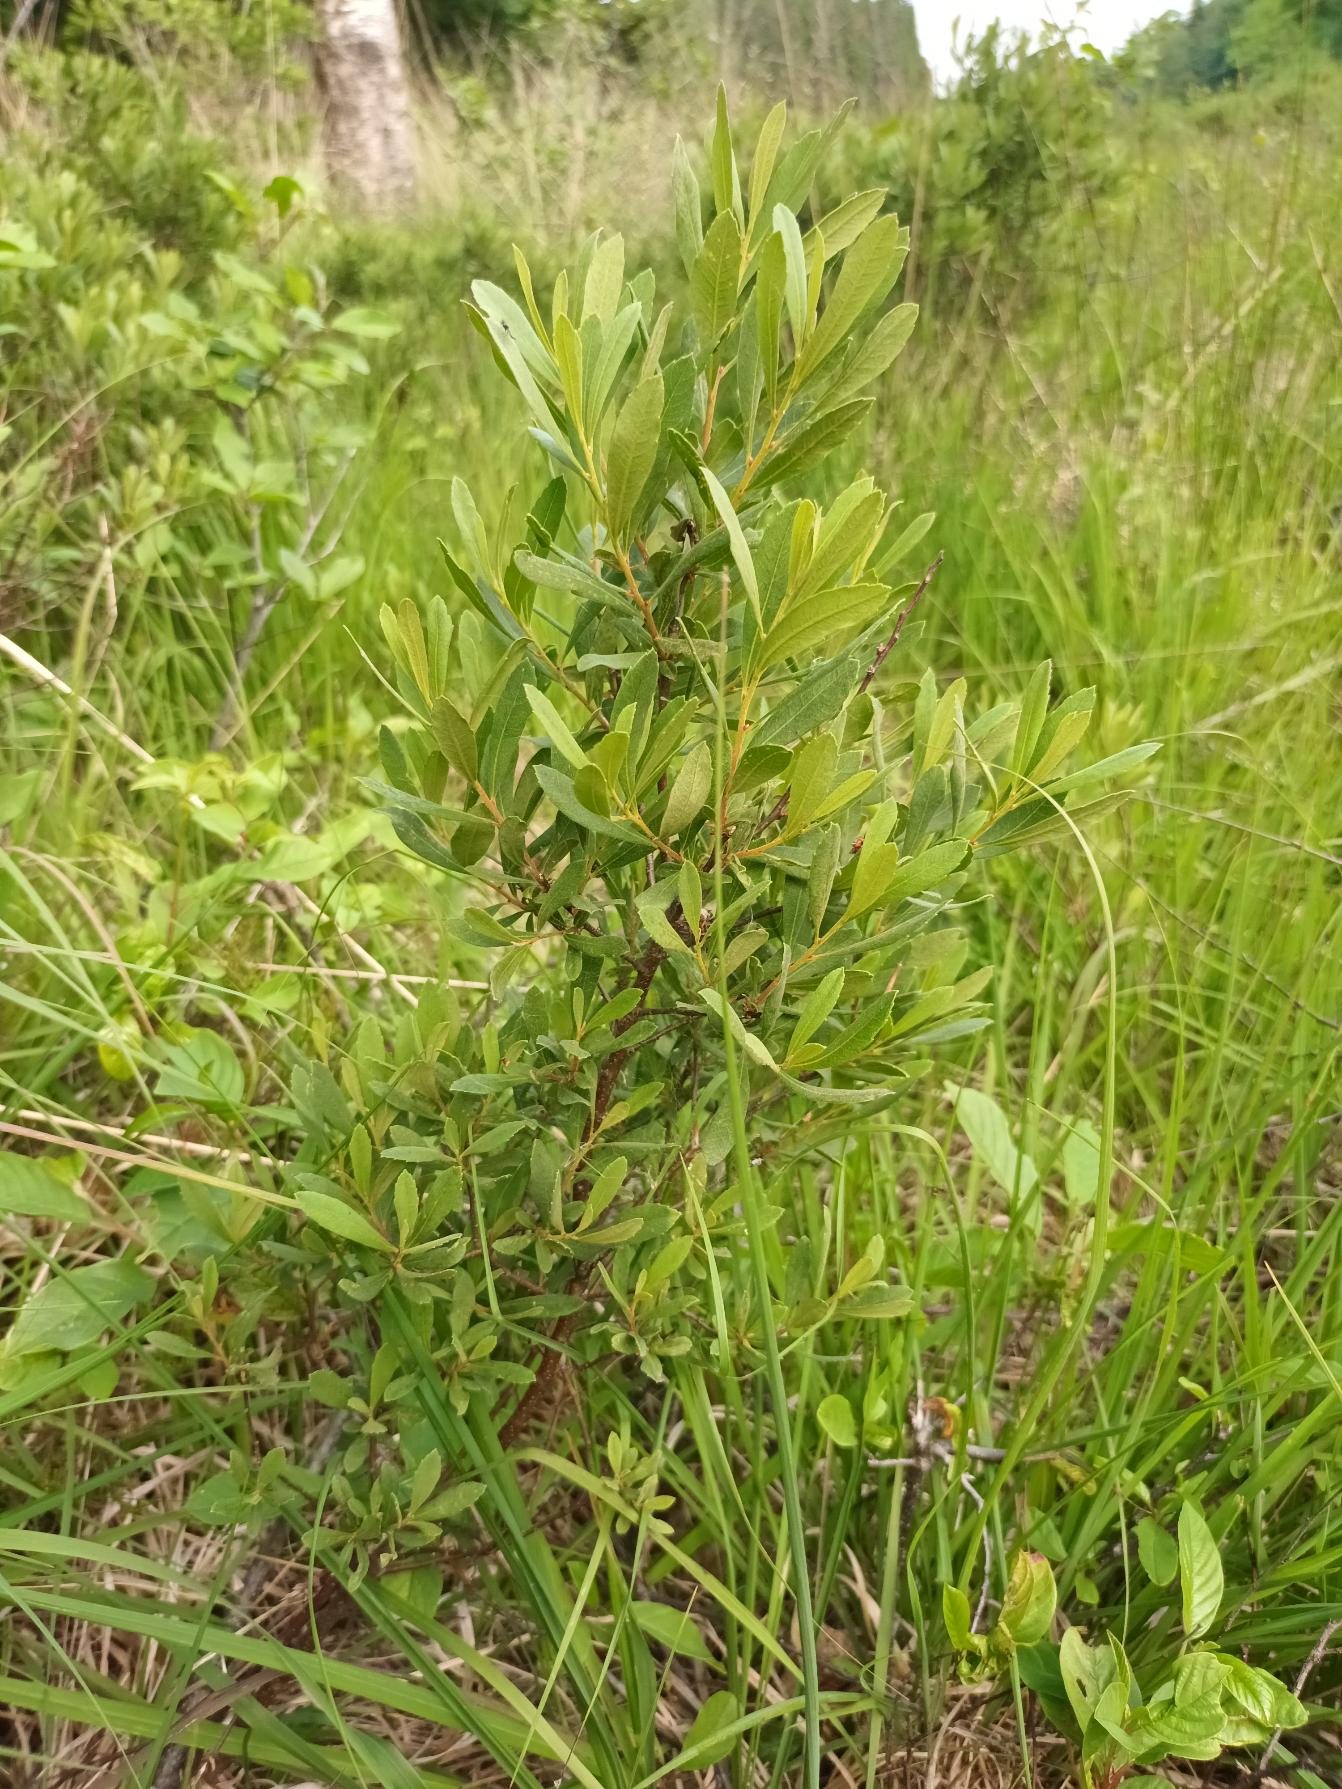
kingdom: Plantae
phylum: Tracheophyta
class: Magnoliopsida
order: Fagales
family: Myricaceae
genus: Myrica
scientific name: Myrica gale
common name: Pors
